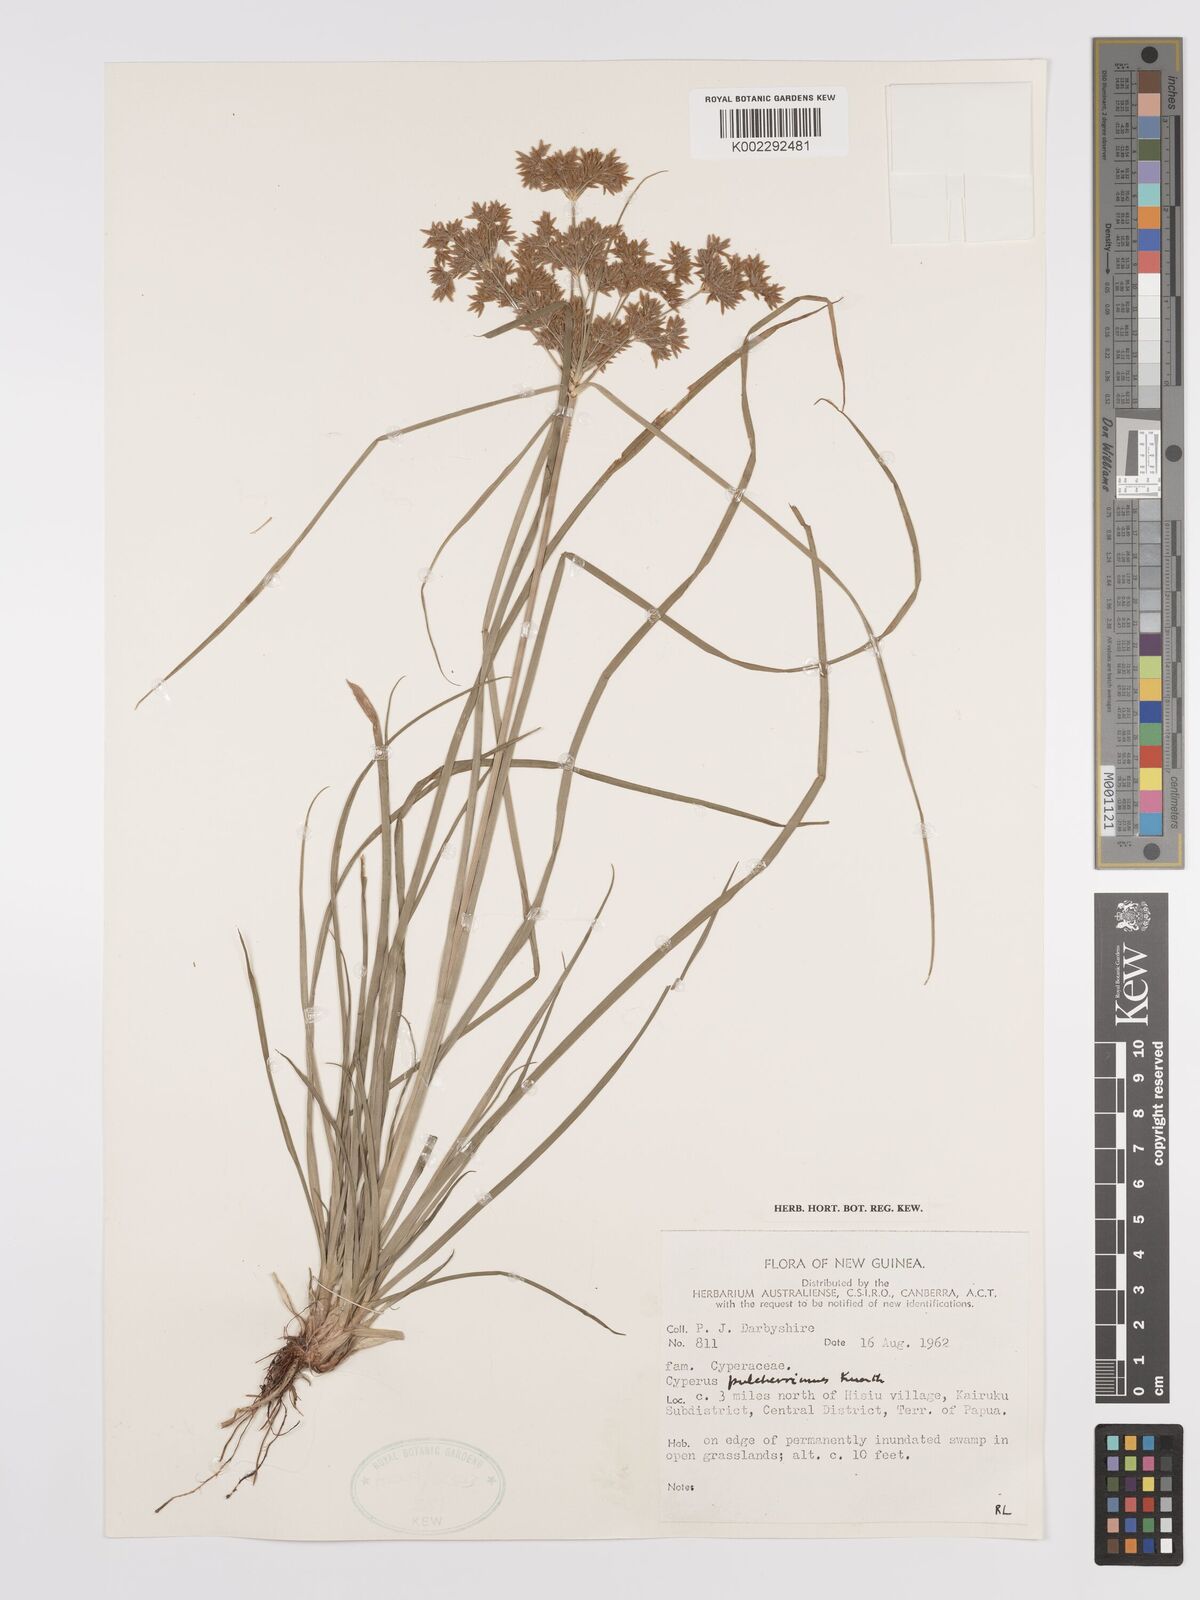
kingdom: Plantae
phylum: Tracheophyta
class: Liliopsida
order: Poales
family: Cyperaceae
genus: Cyperus
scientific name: Cyperus pulcherrimus
